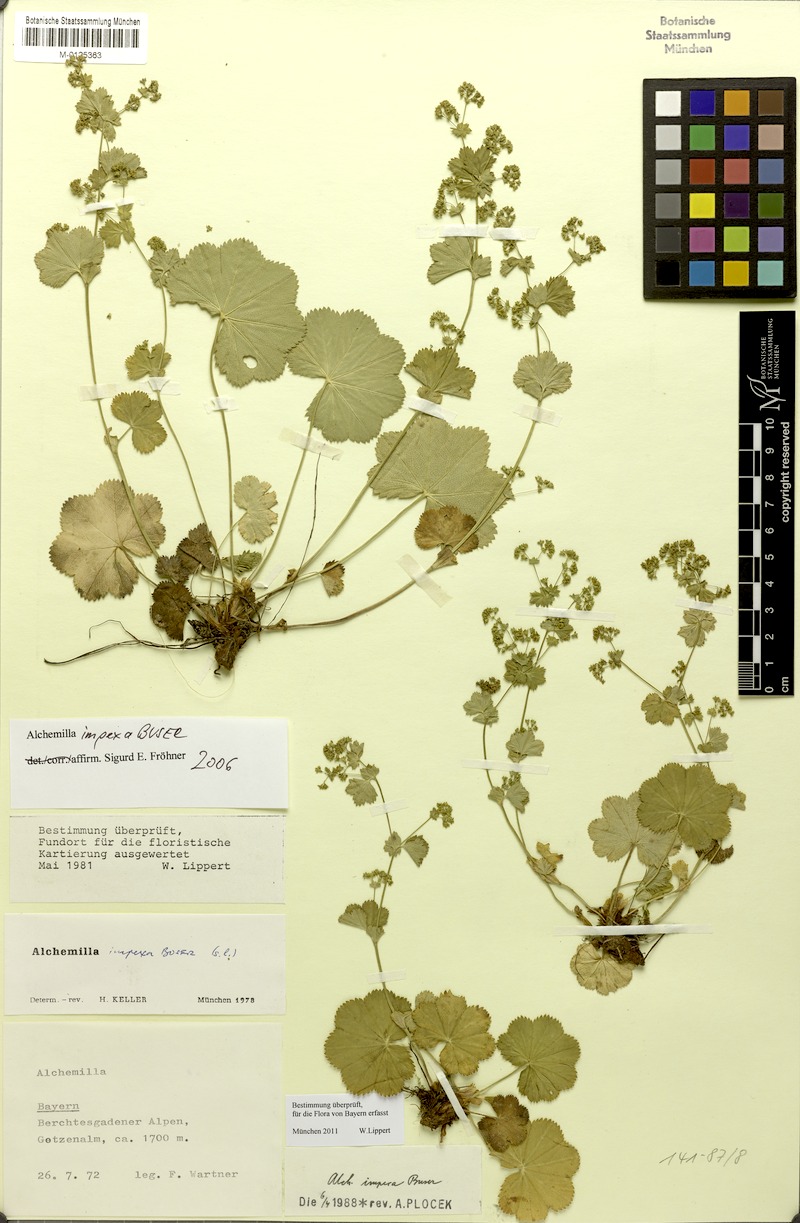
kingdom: Plantae
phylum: Tracheophyta
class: Magnoliopsida
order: Rosales
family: Rosaceae
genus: Alchemilla
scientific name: Alchemilla impexa
